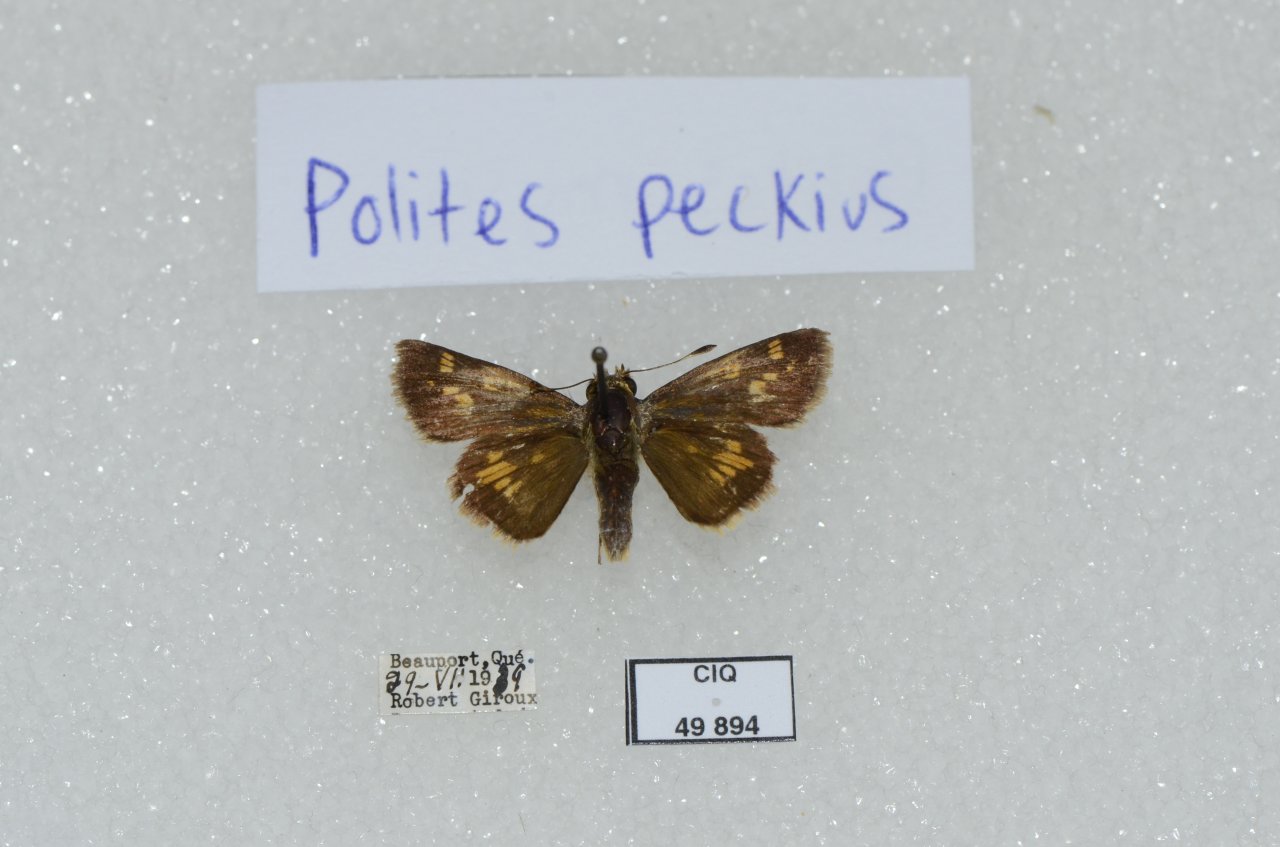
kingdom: Animalia
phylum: Arthropoda
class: Insecta
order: Lepidoptera
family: Hesperiidae
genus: Polites
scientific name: Polites coras
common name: Peck's Skipper
